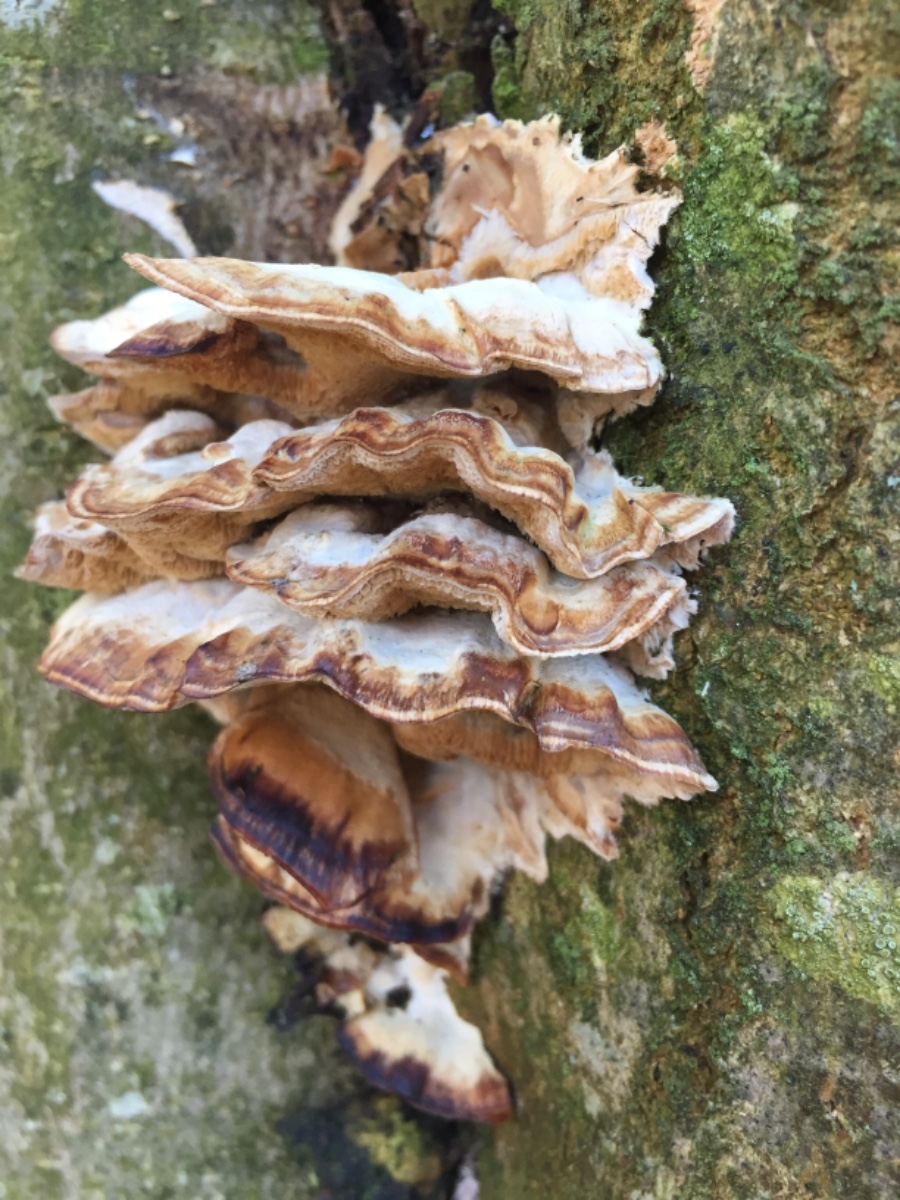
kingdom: Fungi
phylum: Basidiomycota
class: Agaricomycetes
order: Polyporales
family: Phanerochaetaceae
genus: Bjerkandera
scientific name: Bjerkandera fumosa
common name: grågul sodporesvamp
